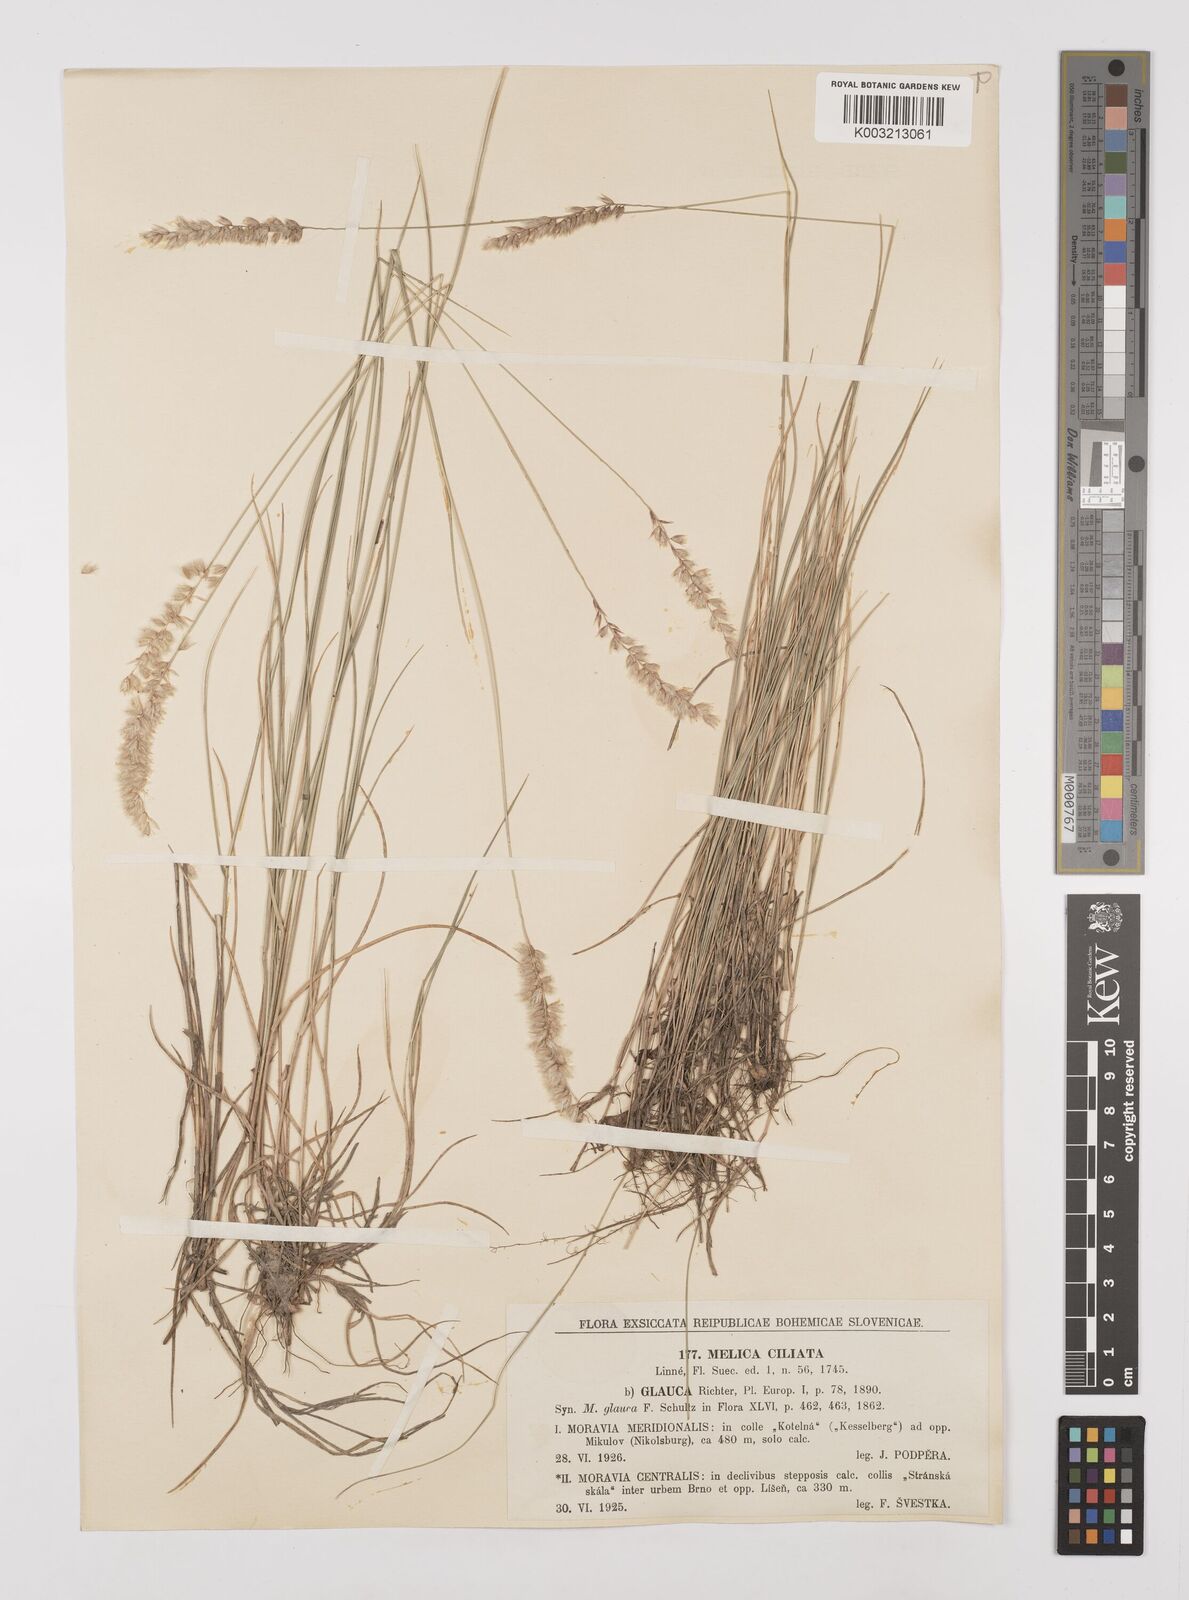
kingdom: Plantae
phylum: Tracheophyta
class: Liliopsida
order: Poales
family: Poaceae
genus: Melica
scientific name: Melica ciliata
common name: Hairy melicgrass
